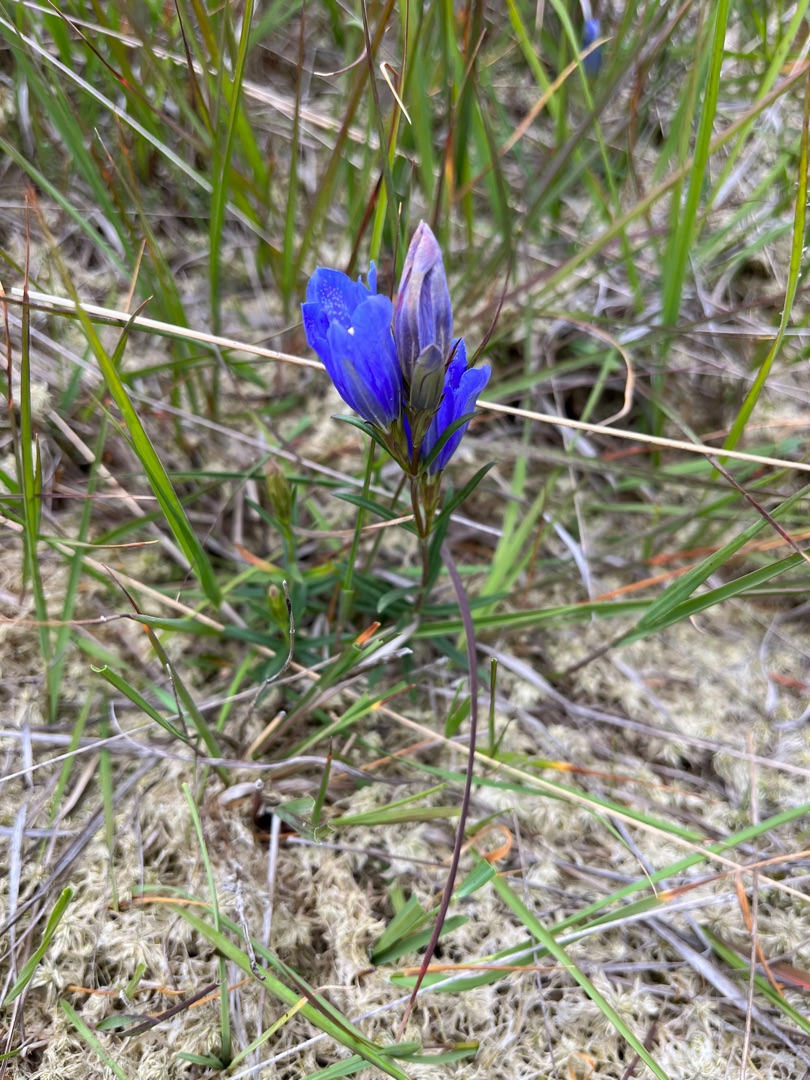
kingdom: Plantae
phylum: Tracheophyta
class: Magnoliopsida
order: Gentianales
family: Gentianaceae
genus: Gentiana
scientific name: Gentiana pneumonanthe
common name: Klokke-ensian
